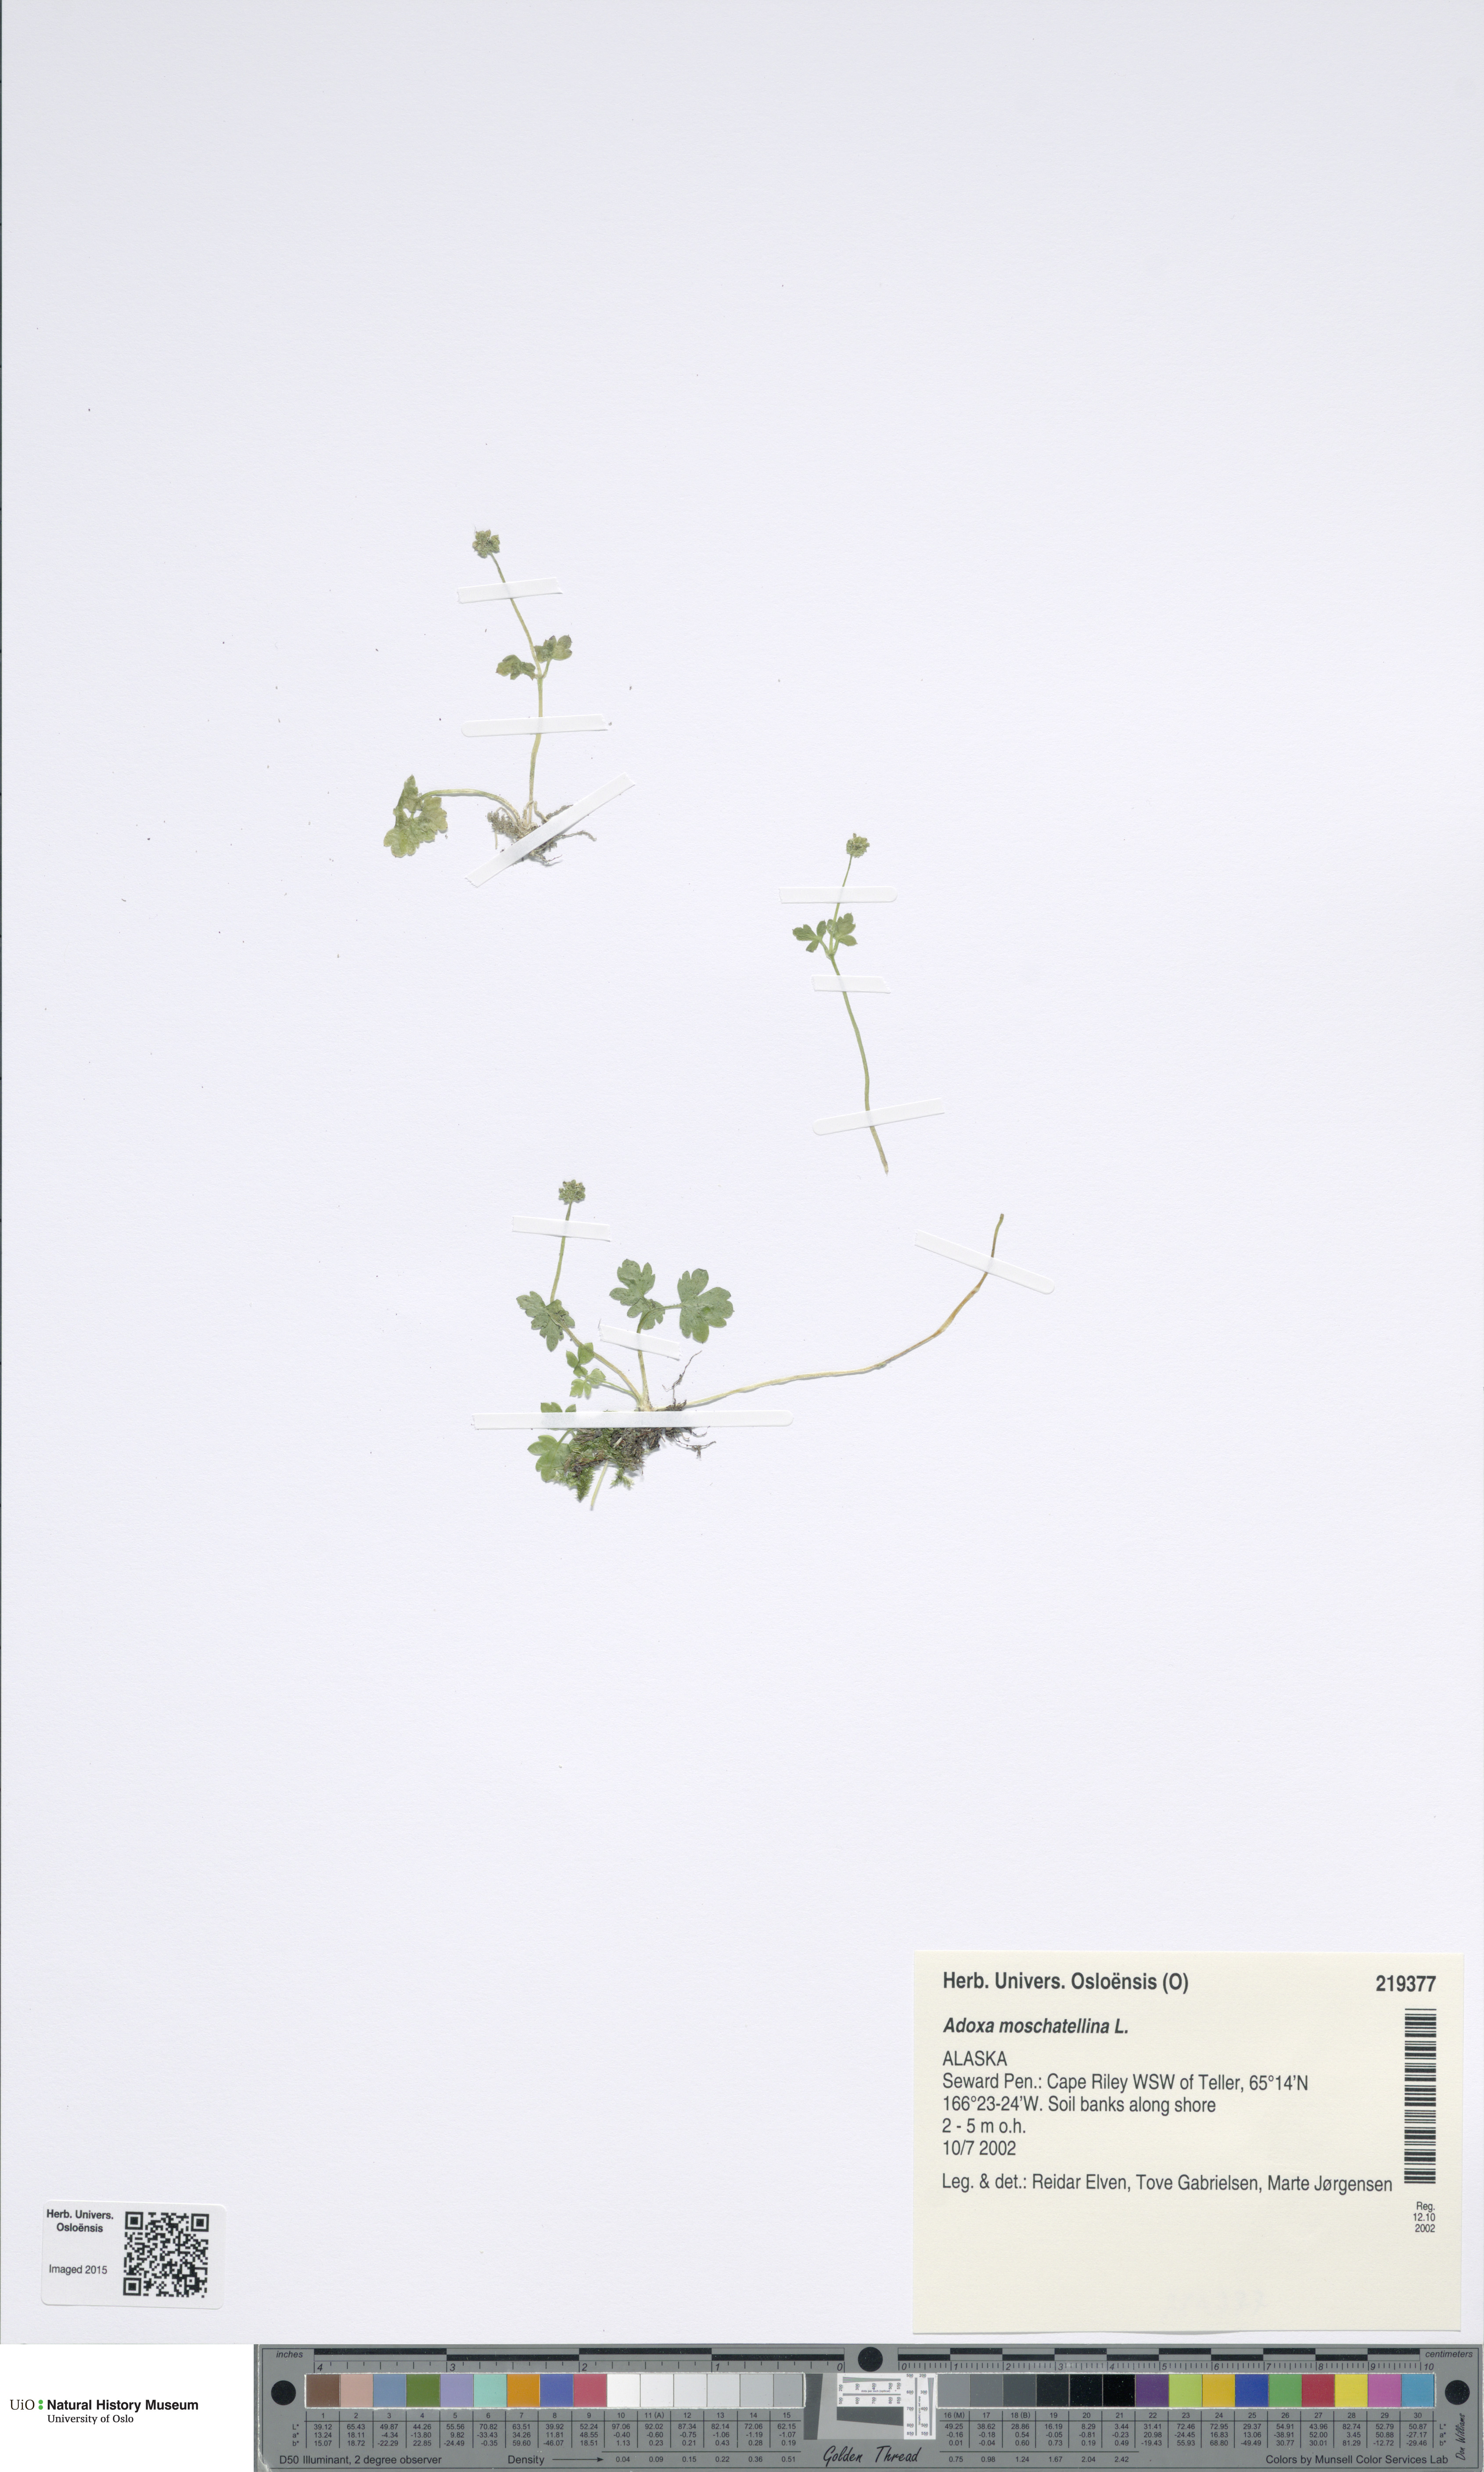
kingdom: Plantae
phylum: Tracheophyta
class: Magnoliopsida
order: Dipsacales
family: Viburnaceae
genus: Adoxa
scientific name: Adoxa moschatellina
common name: Moschatel
